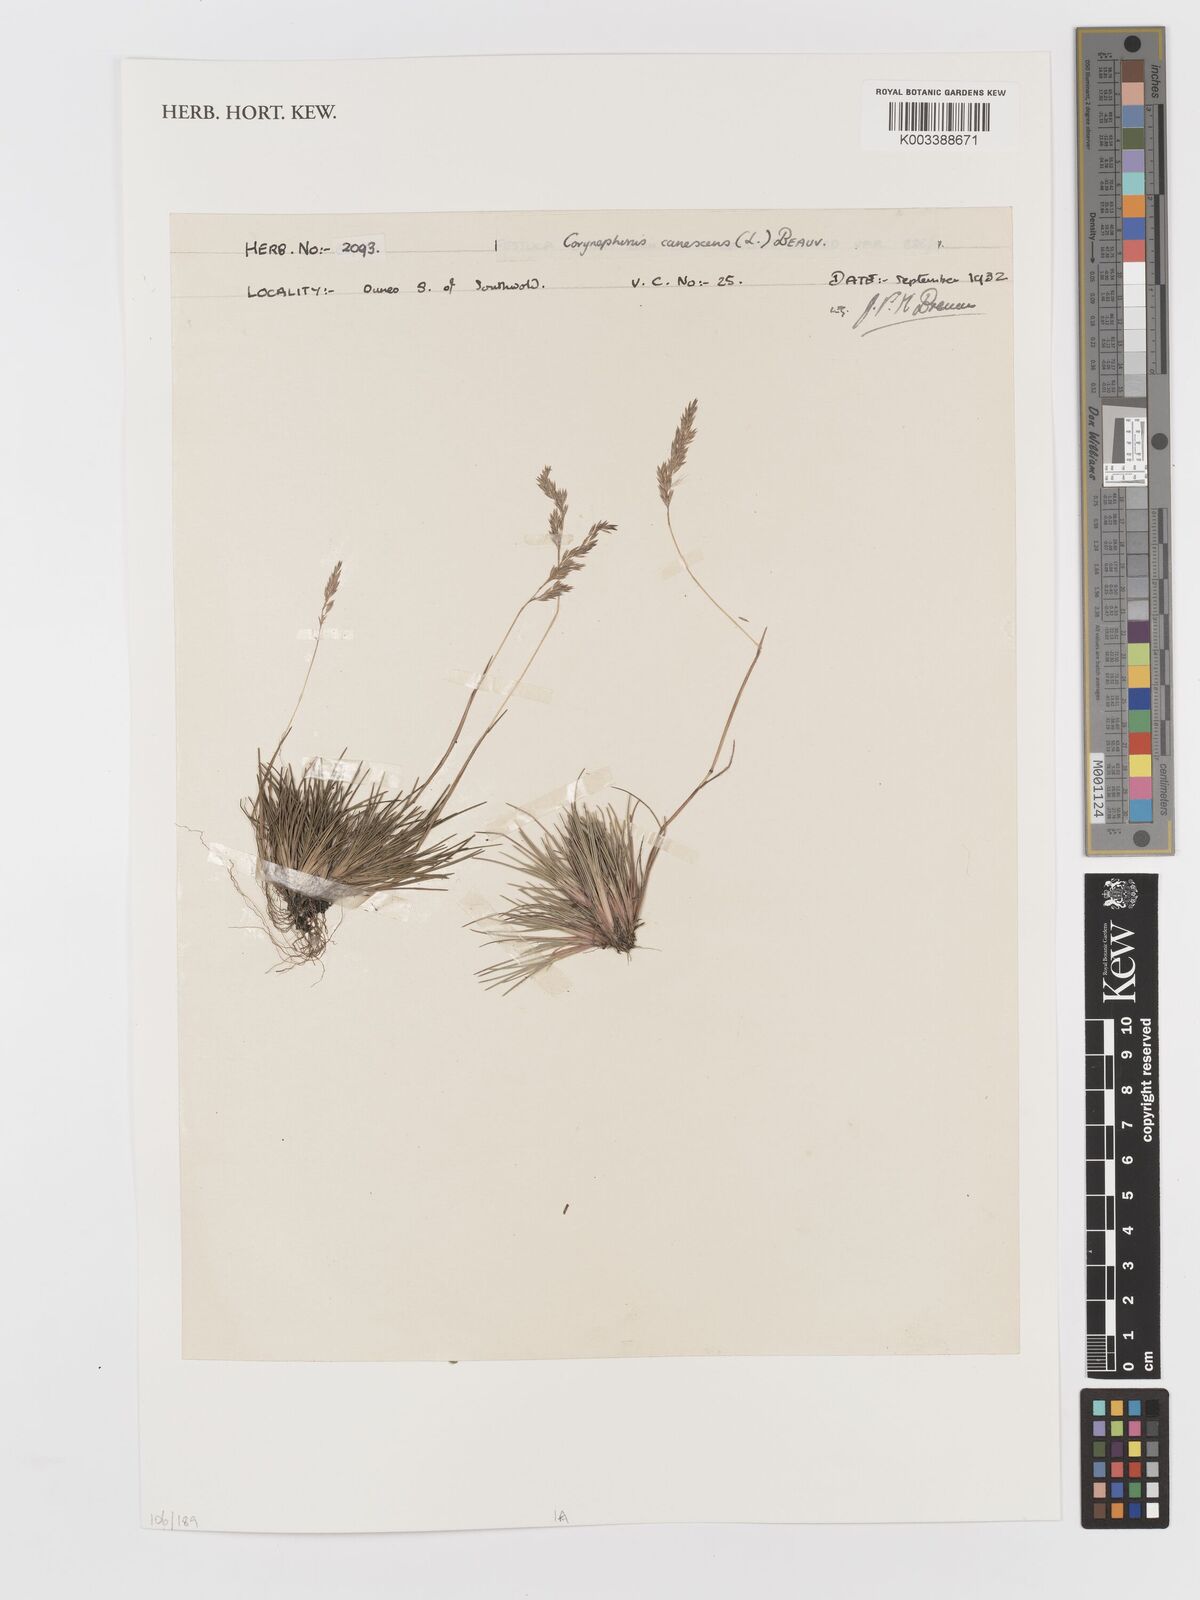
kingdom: Plantae
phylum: Tracheophyta
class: Liliopsida
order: Poales
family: Poaceae
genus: Corynephorus
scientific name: Corynephorus canescens
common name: Grey hair-grass
